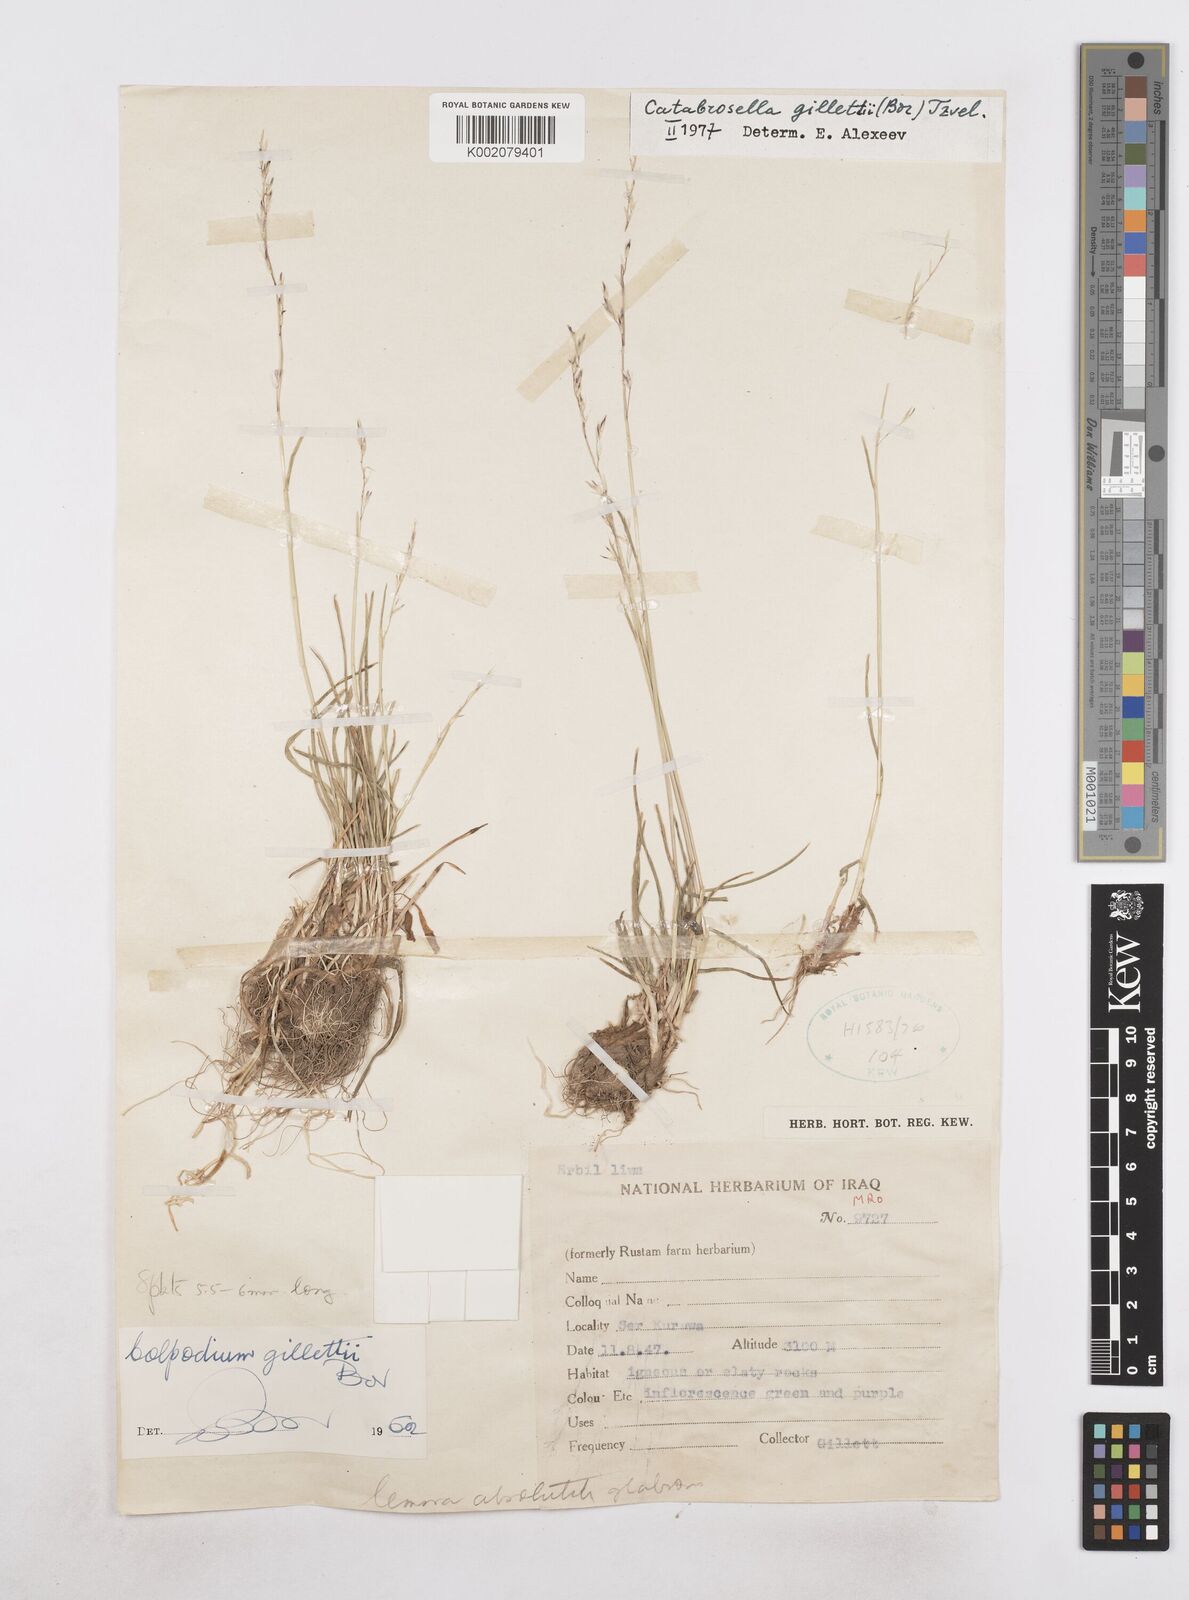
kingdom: Plantae
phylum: Tracheophyta
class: Liliopsida
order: Poales
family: Poaceae
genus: Catabrosella
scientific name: Catabrosella gillettii
